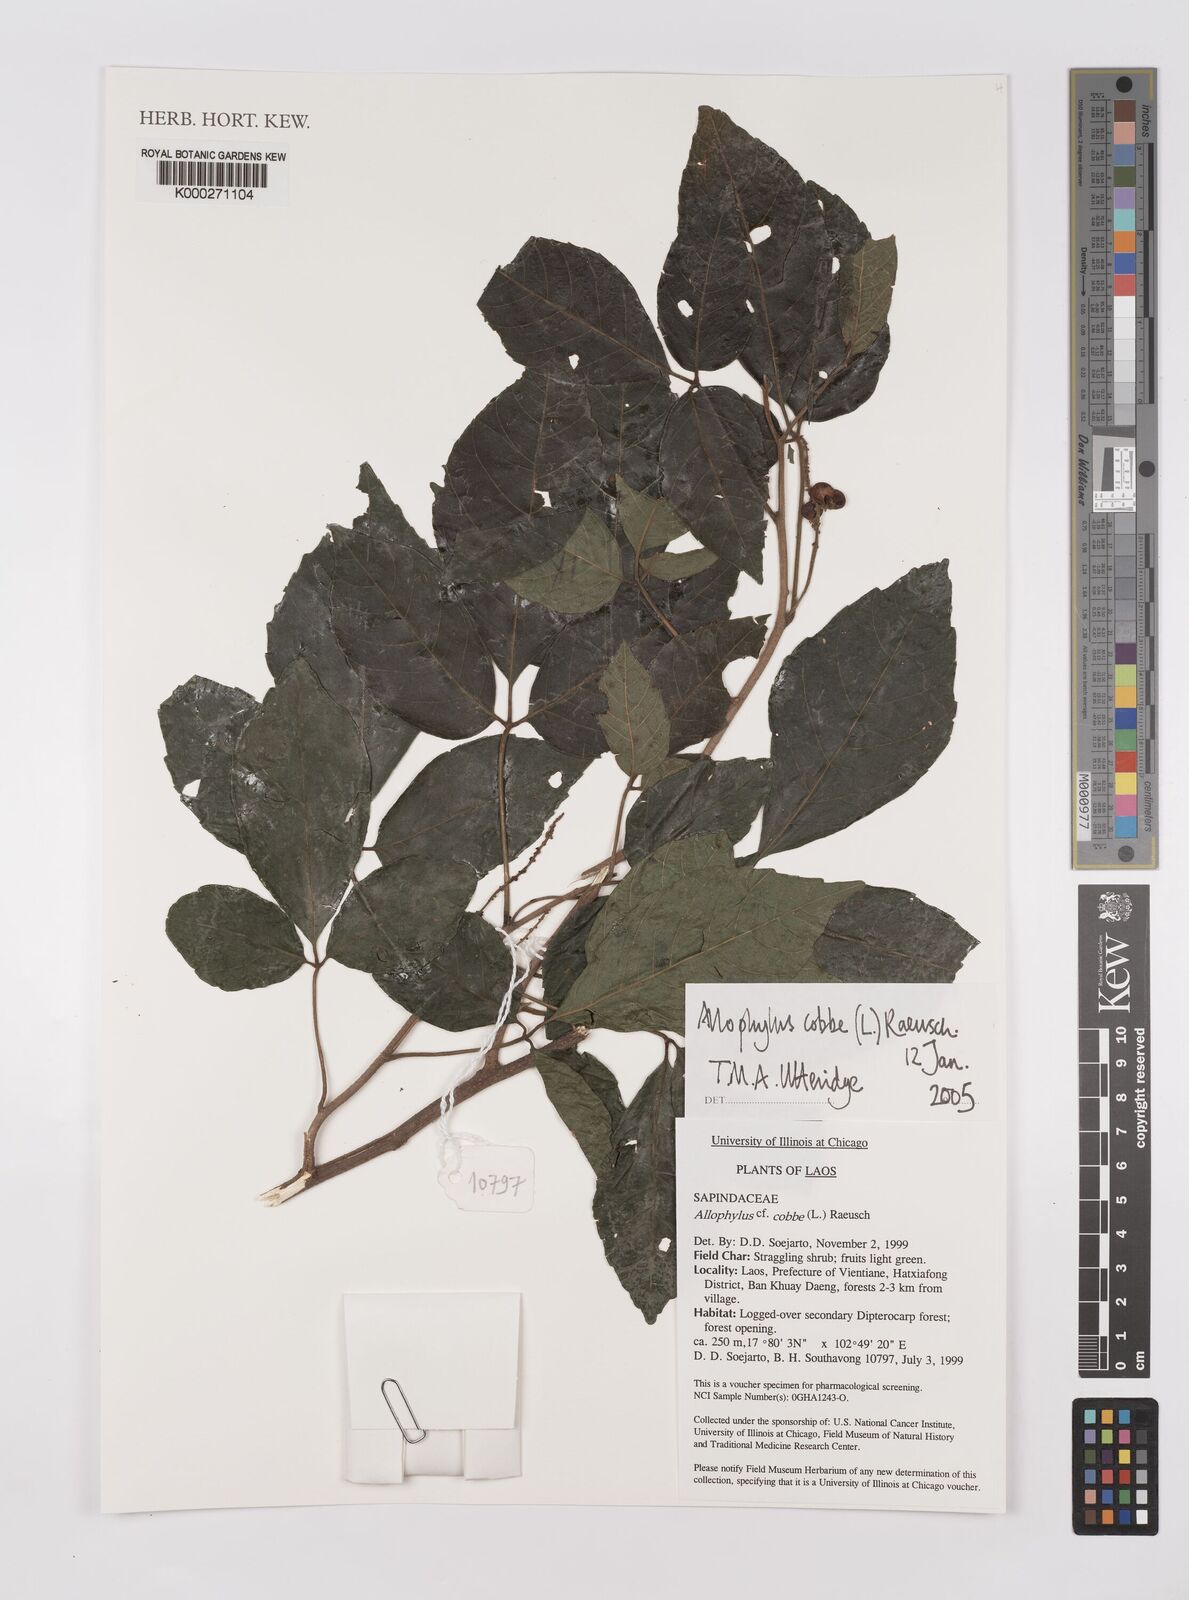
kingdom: Plantae
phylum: Tracheophyta
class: Magnoliopsida
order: Sapindales
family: Sapindaceae
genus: Allophylus
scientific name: Allophylus
